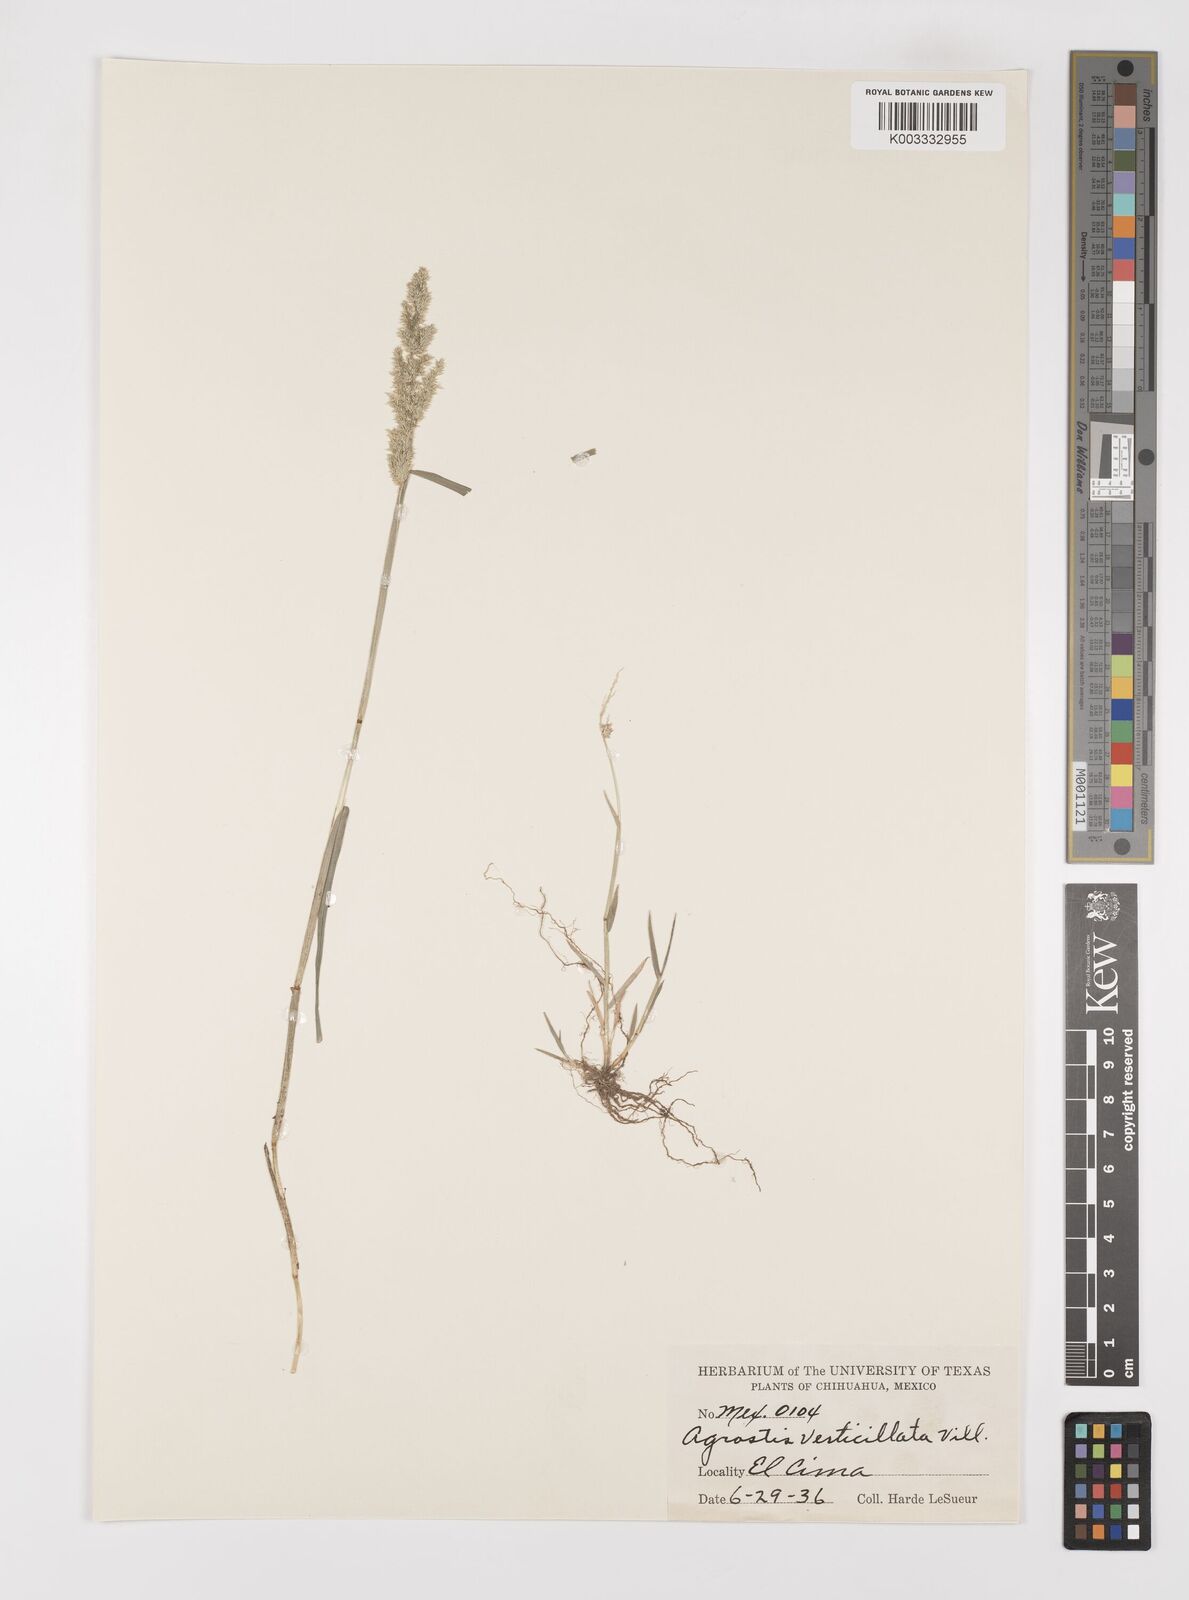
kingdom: Plantae
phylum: Tracheophyta
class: Liliopsida
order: Poales
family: Poaceae
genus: Polypogon
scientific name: Polypogon viridis
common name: Water bent
